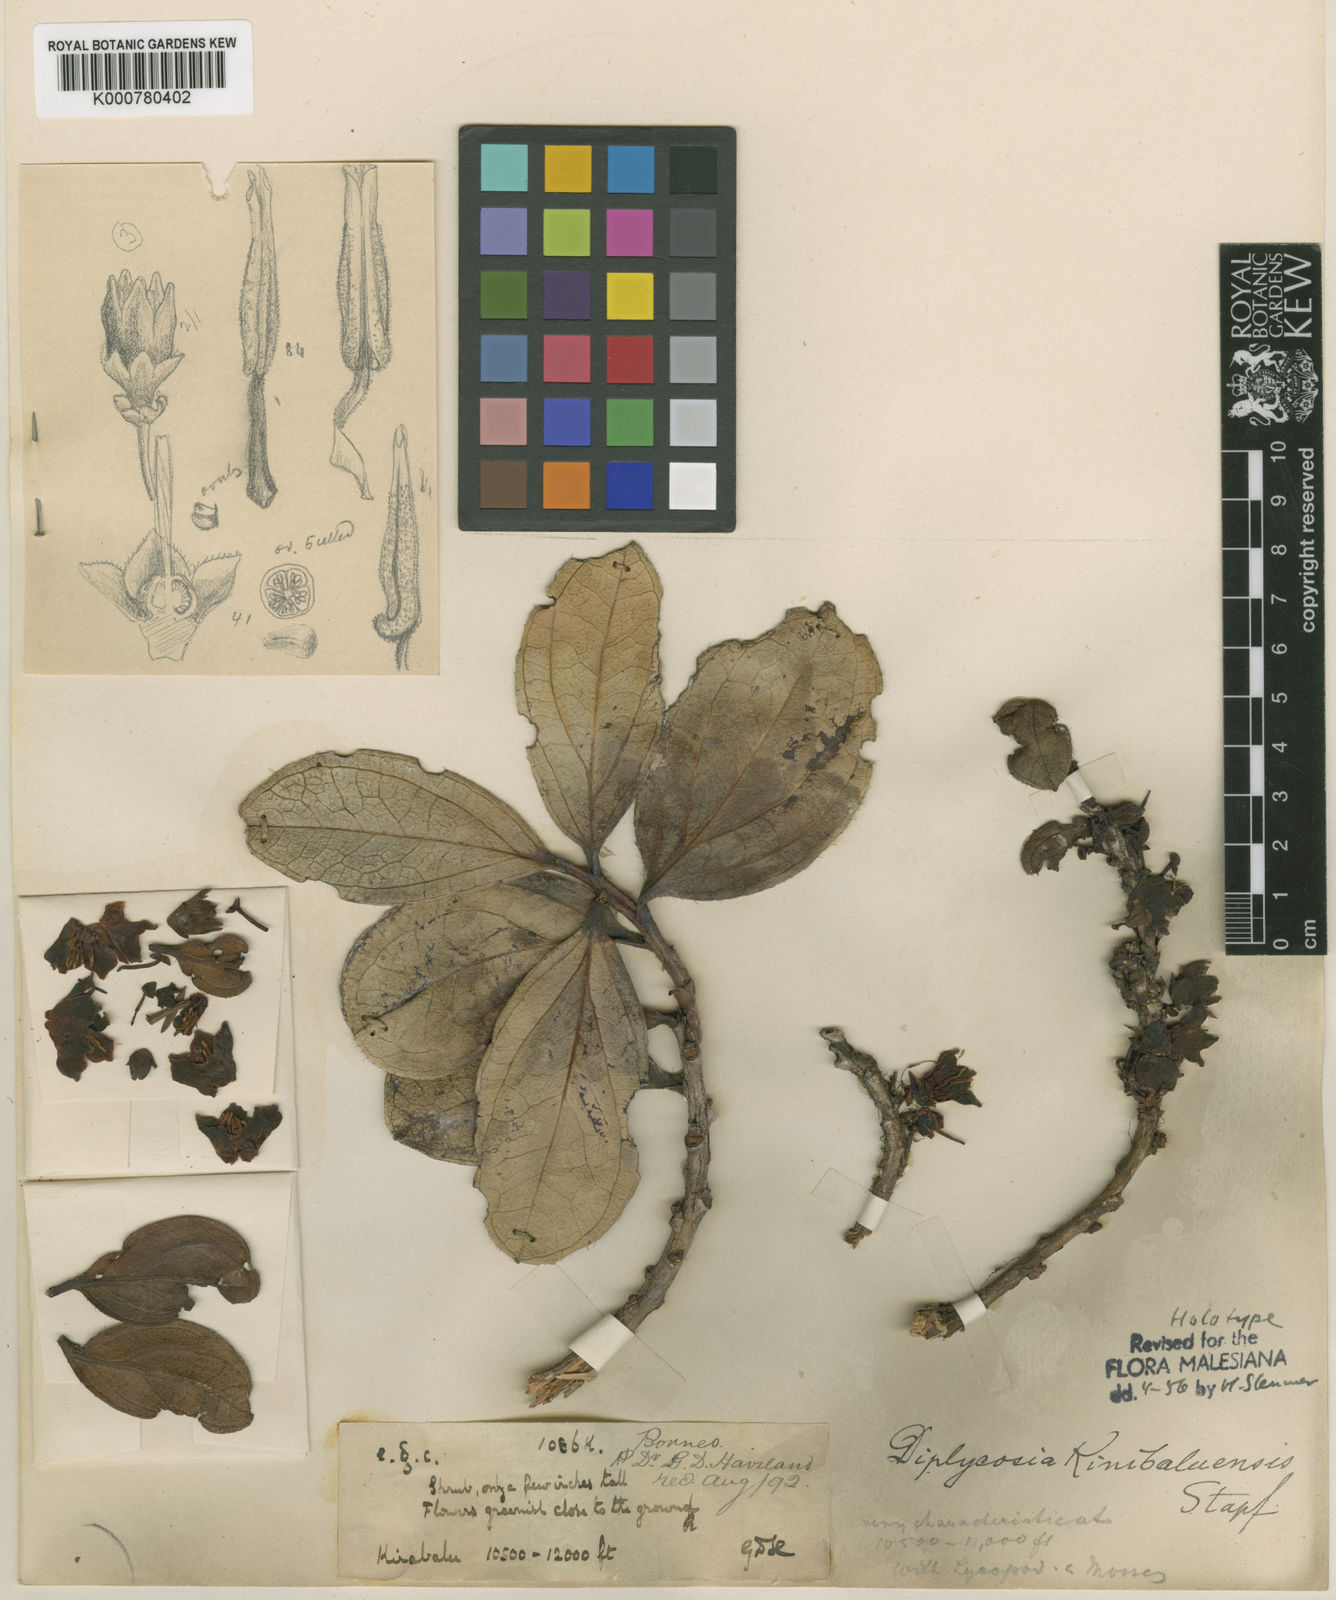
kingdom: Plantae
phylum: Tracheophyta
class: Magnoliopsida
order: Ericales
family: Ericaceae
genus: Gaultheria
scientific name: Gaultheria kinabaluensis
